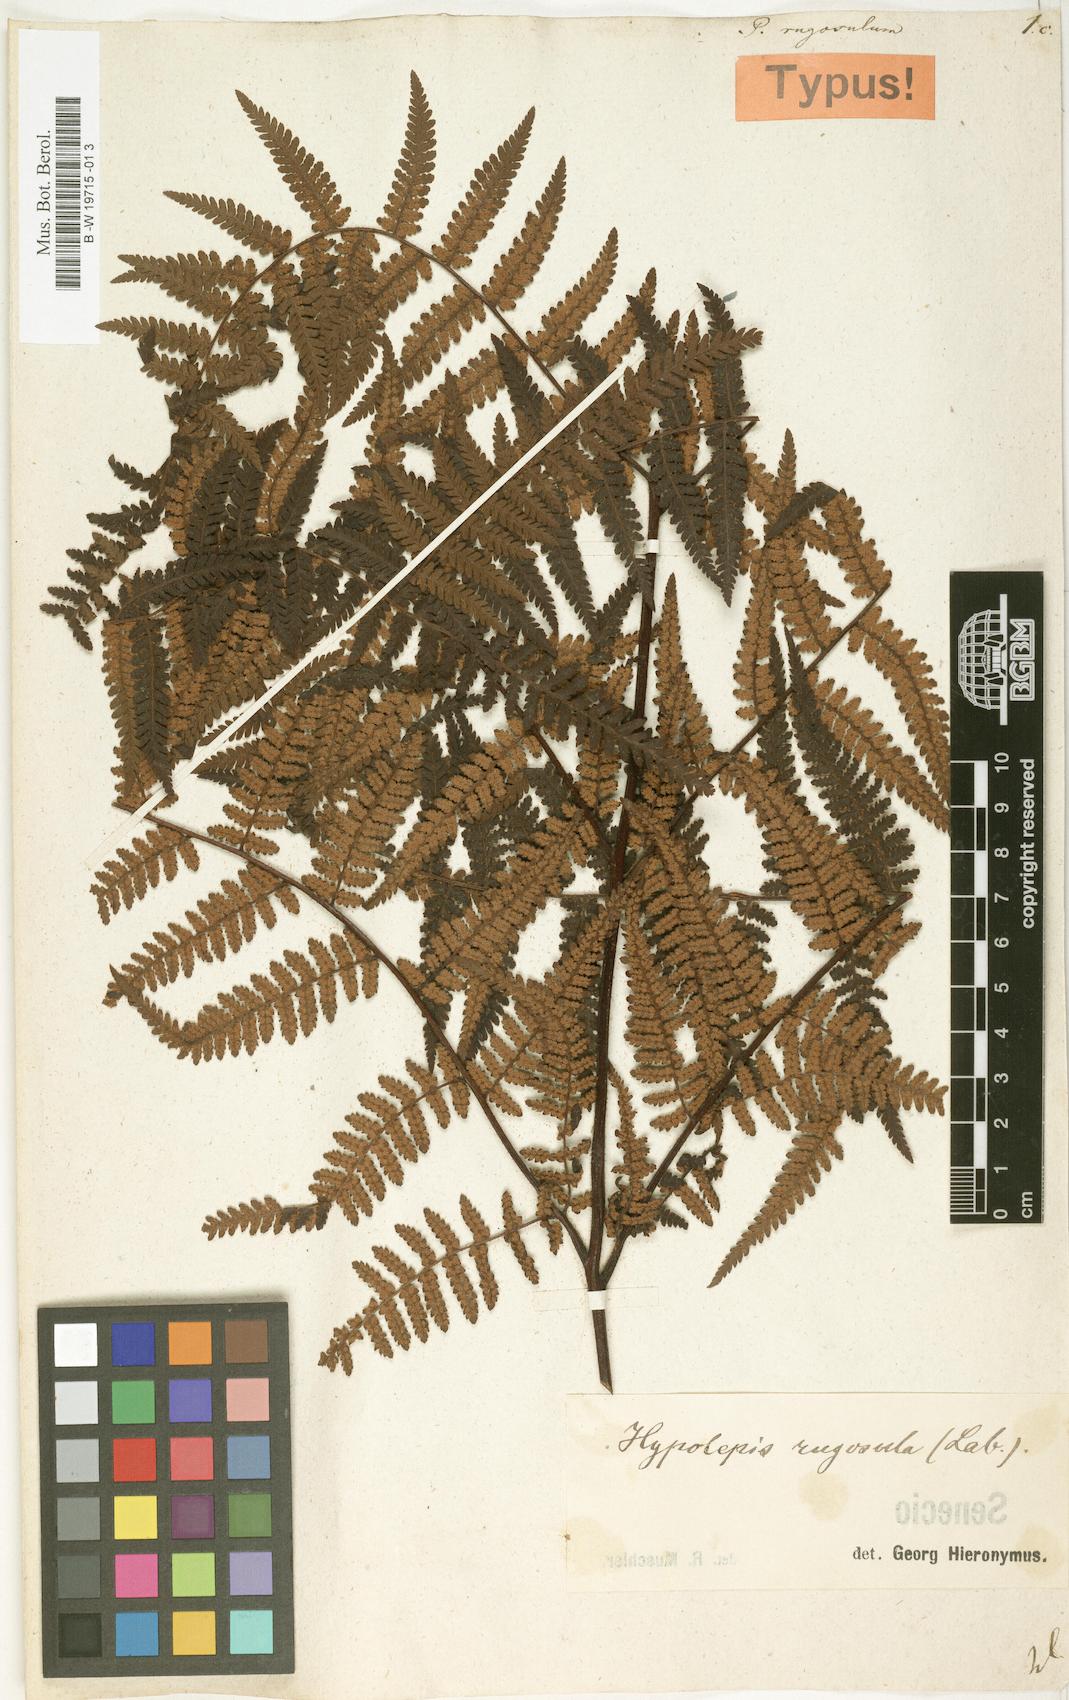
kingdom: Plantae
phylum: Tracheophyta
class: Polypodiopsida
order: Polypodiales
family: Dennstaedtiaceae
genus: Hypolepis
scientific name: Hypolepis rugosula
